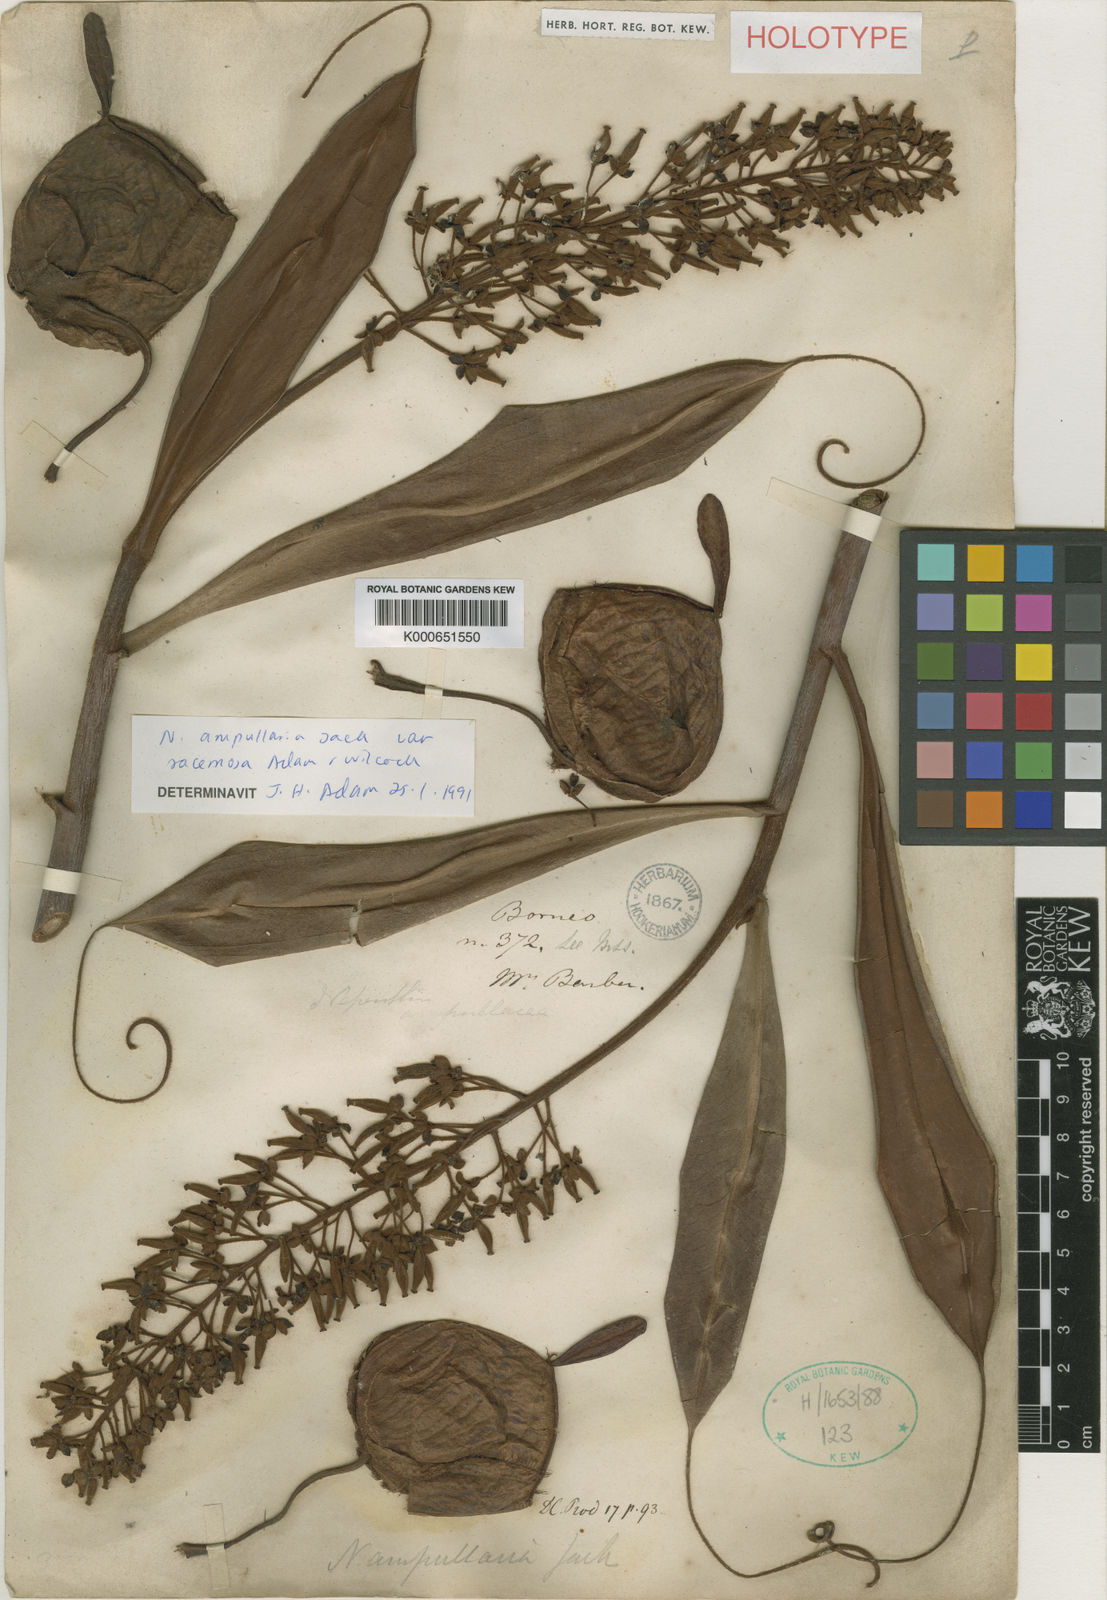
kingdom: Plantae
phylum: Tracheophyta
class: Magnoliopsida
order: Caryophyllales
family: Nepenthaceae
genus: Nepenthes
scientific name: Nepenthes ampullaria
